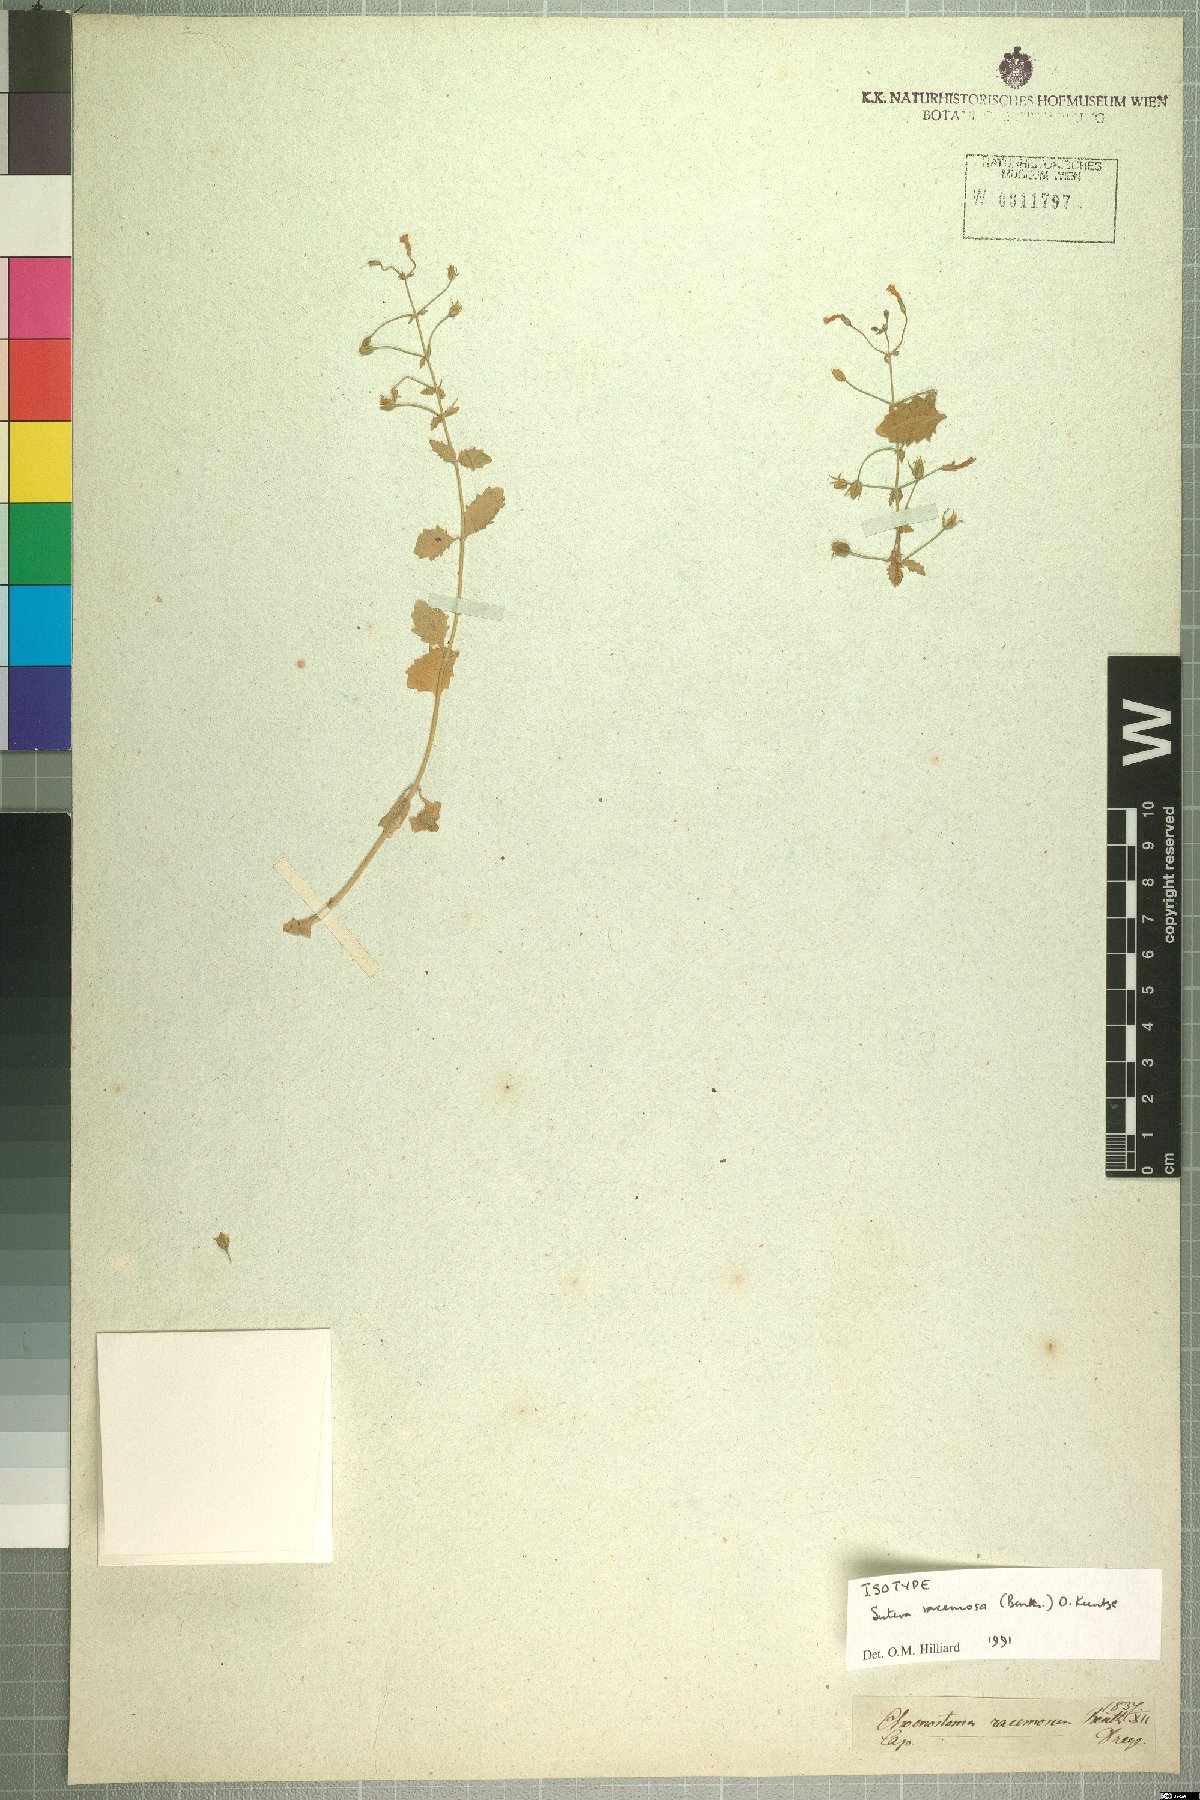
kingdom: Plantae
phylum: Tracheophyta
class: Magnoliopsida
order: Lamiales
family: Scrophulariaceae
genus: Chaenostoma
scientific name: Chaenostoma racemosum
